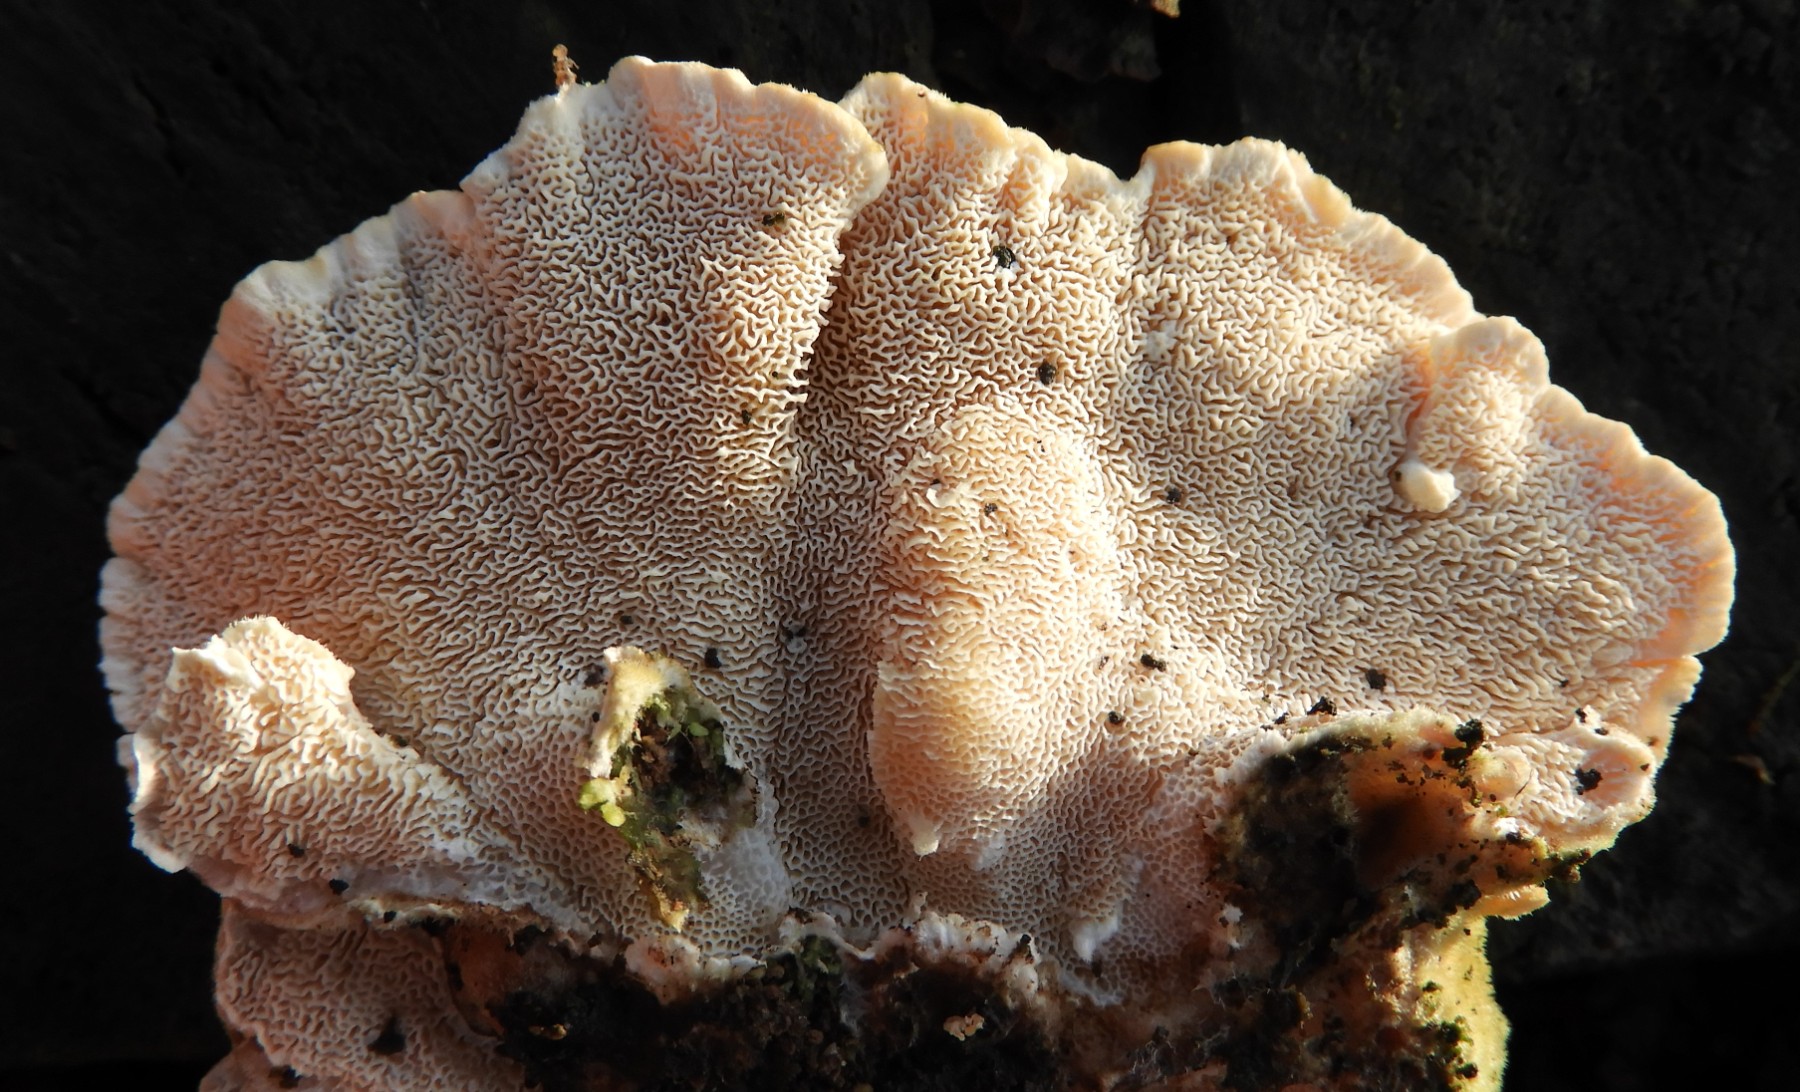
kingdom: Fungi
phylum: Basidiomycota
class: Agaricomycetes
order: Polyporales
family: Polyporaceae
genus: Trametes
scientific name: Trametes ochracea
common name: bæltet læderporesvamp
